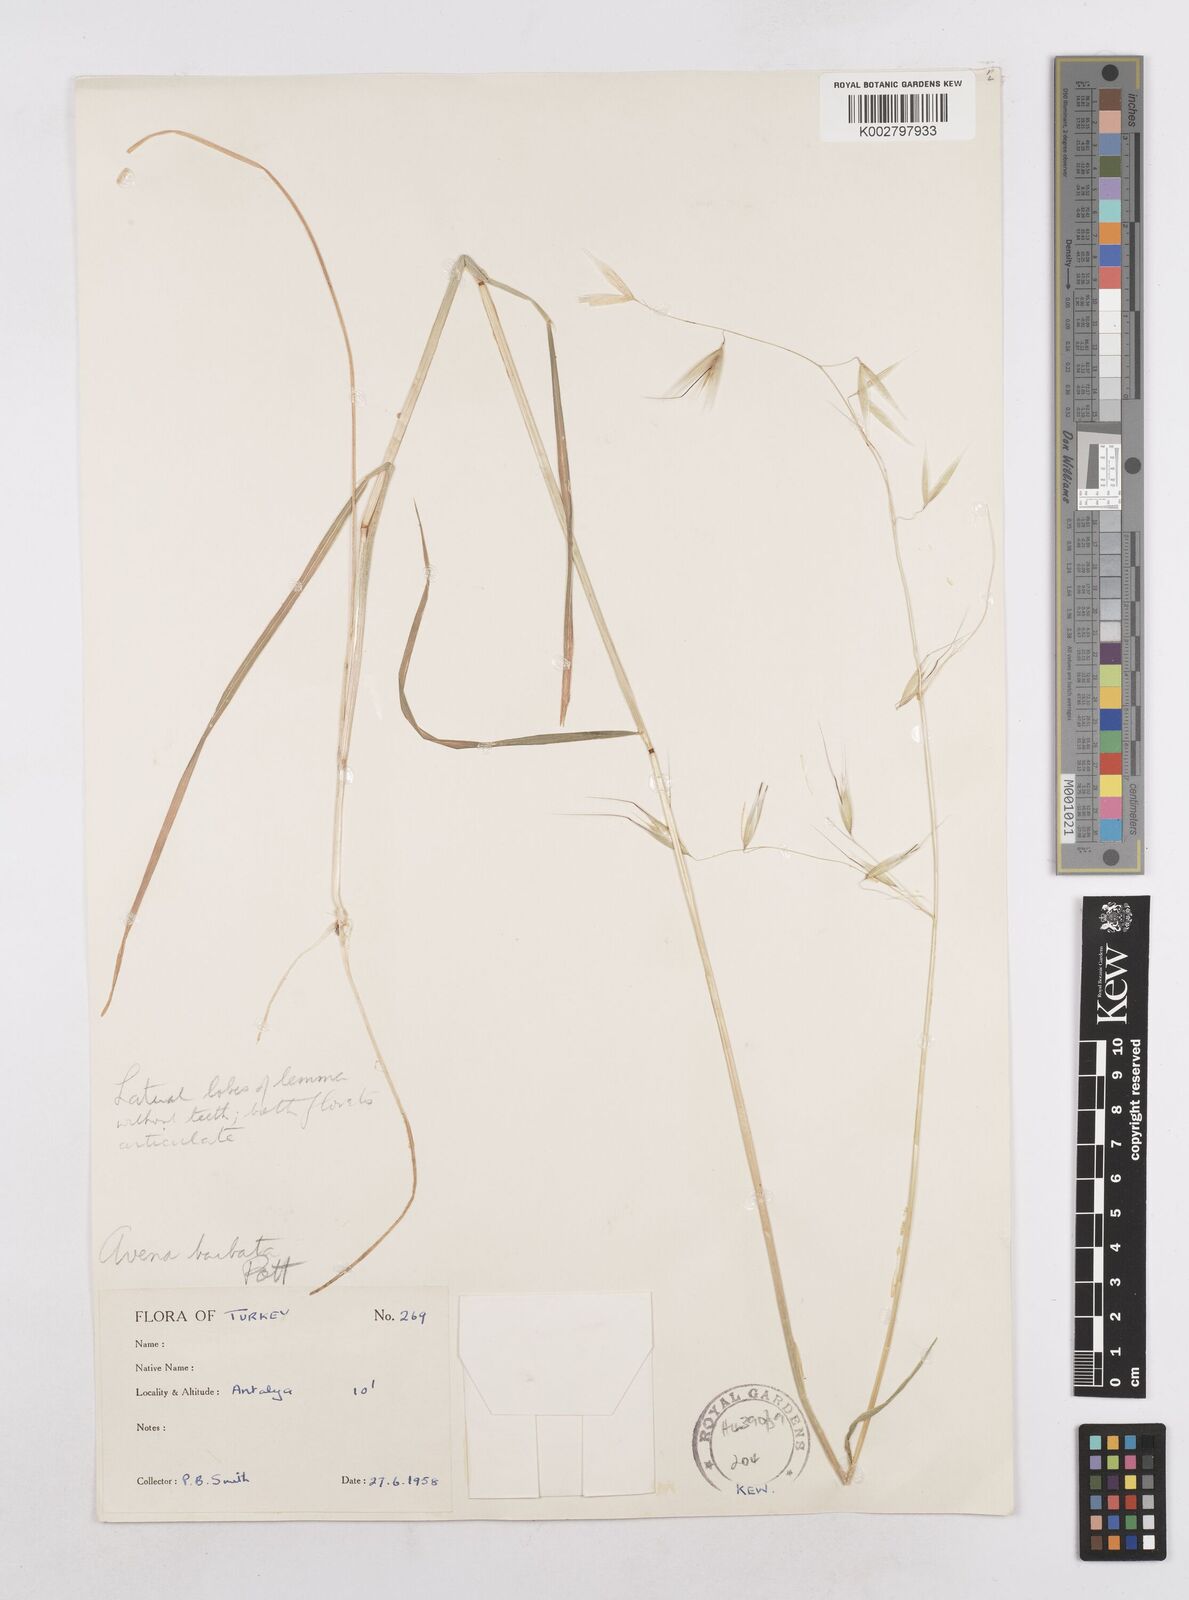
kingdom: Plantae
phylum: Tracheophyta
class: Liliopsida
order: Poales
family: Poaceae
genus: Avena
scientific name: Avena
